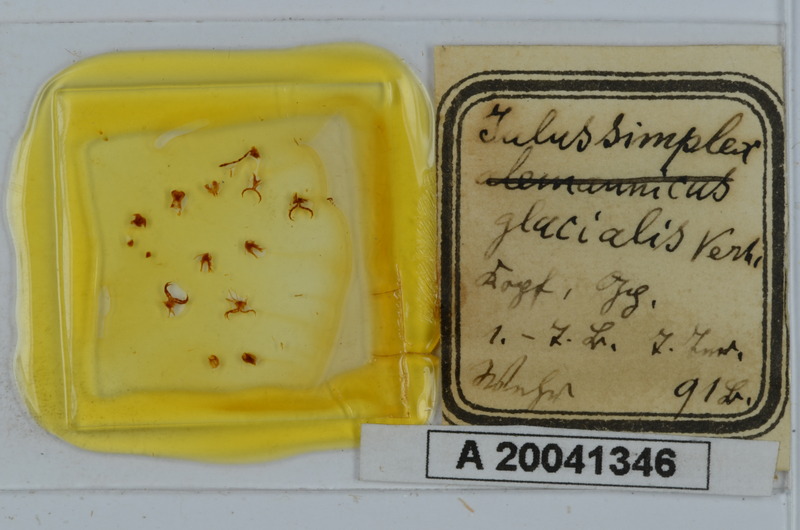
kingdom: Animalia
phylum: Arthropoda
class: Diplopoda
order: Julida
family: Julidae
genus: Leptoiulus
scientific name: Leptoiulus simplex
